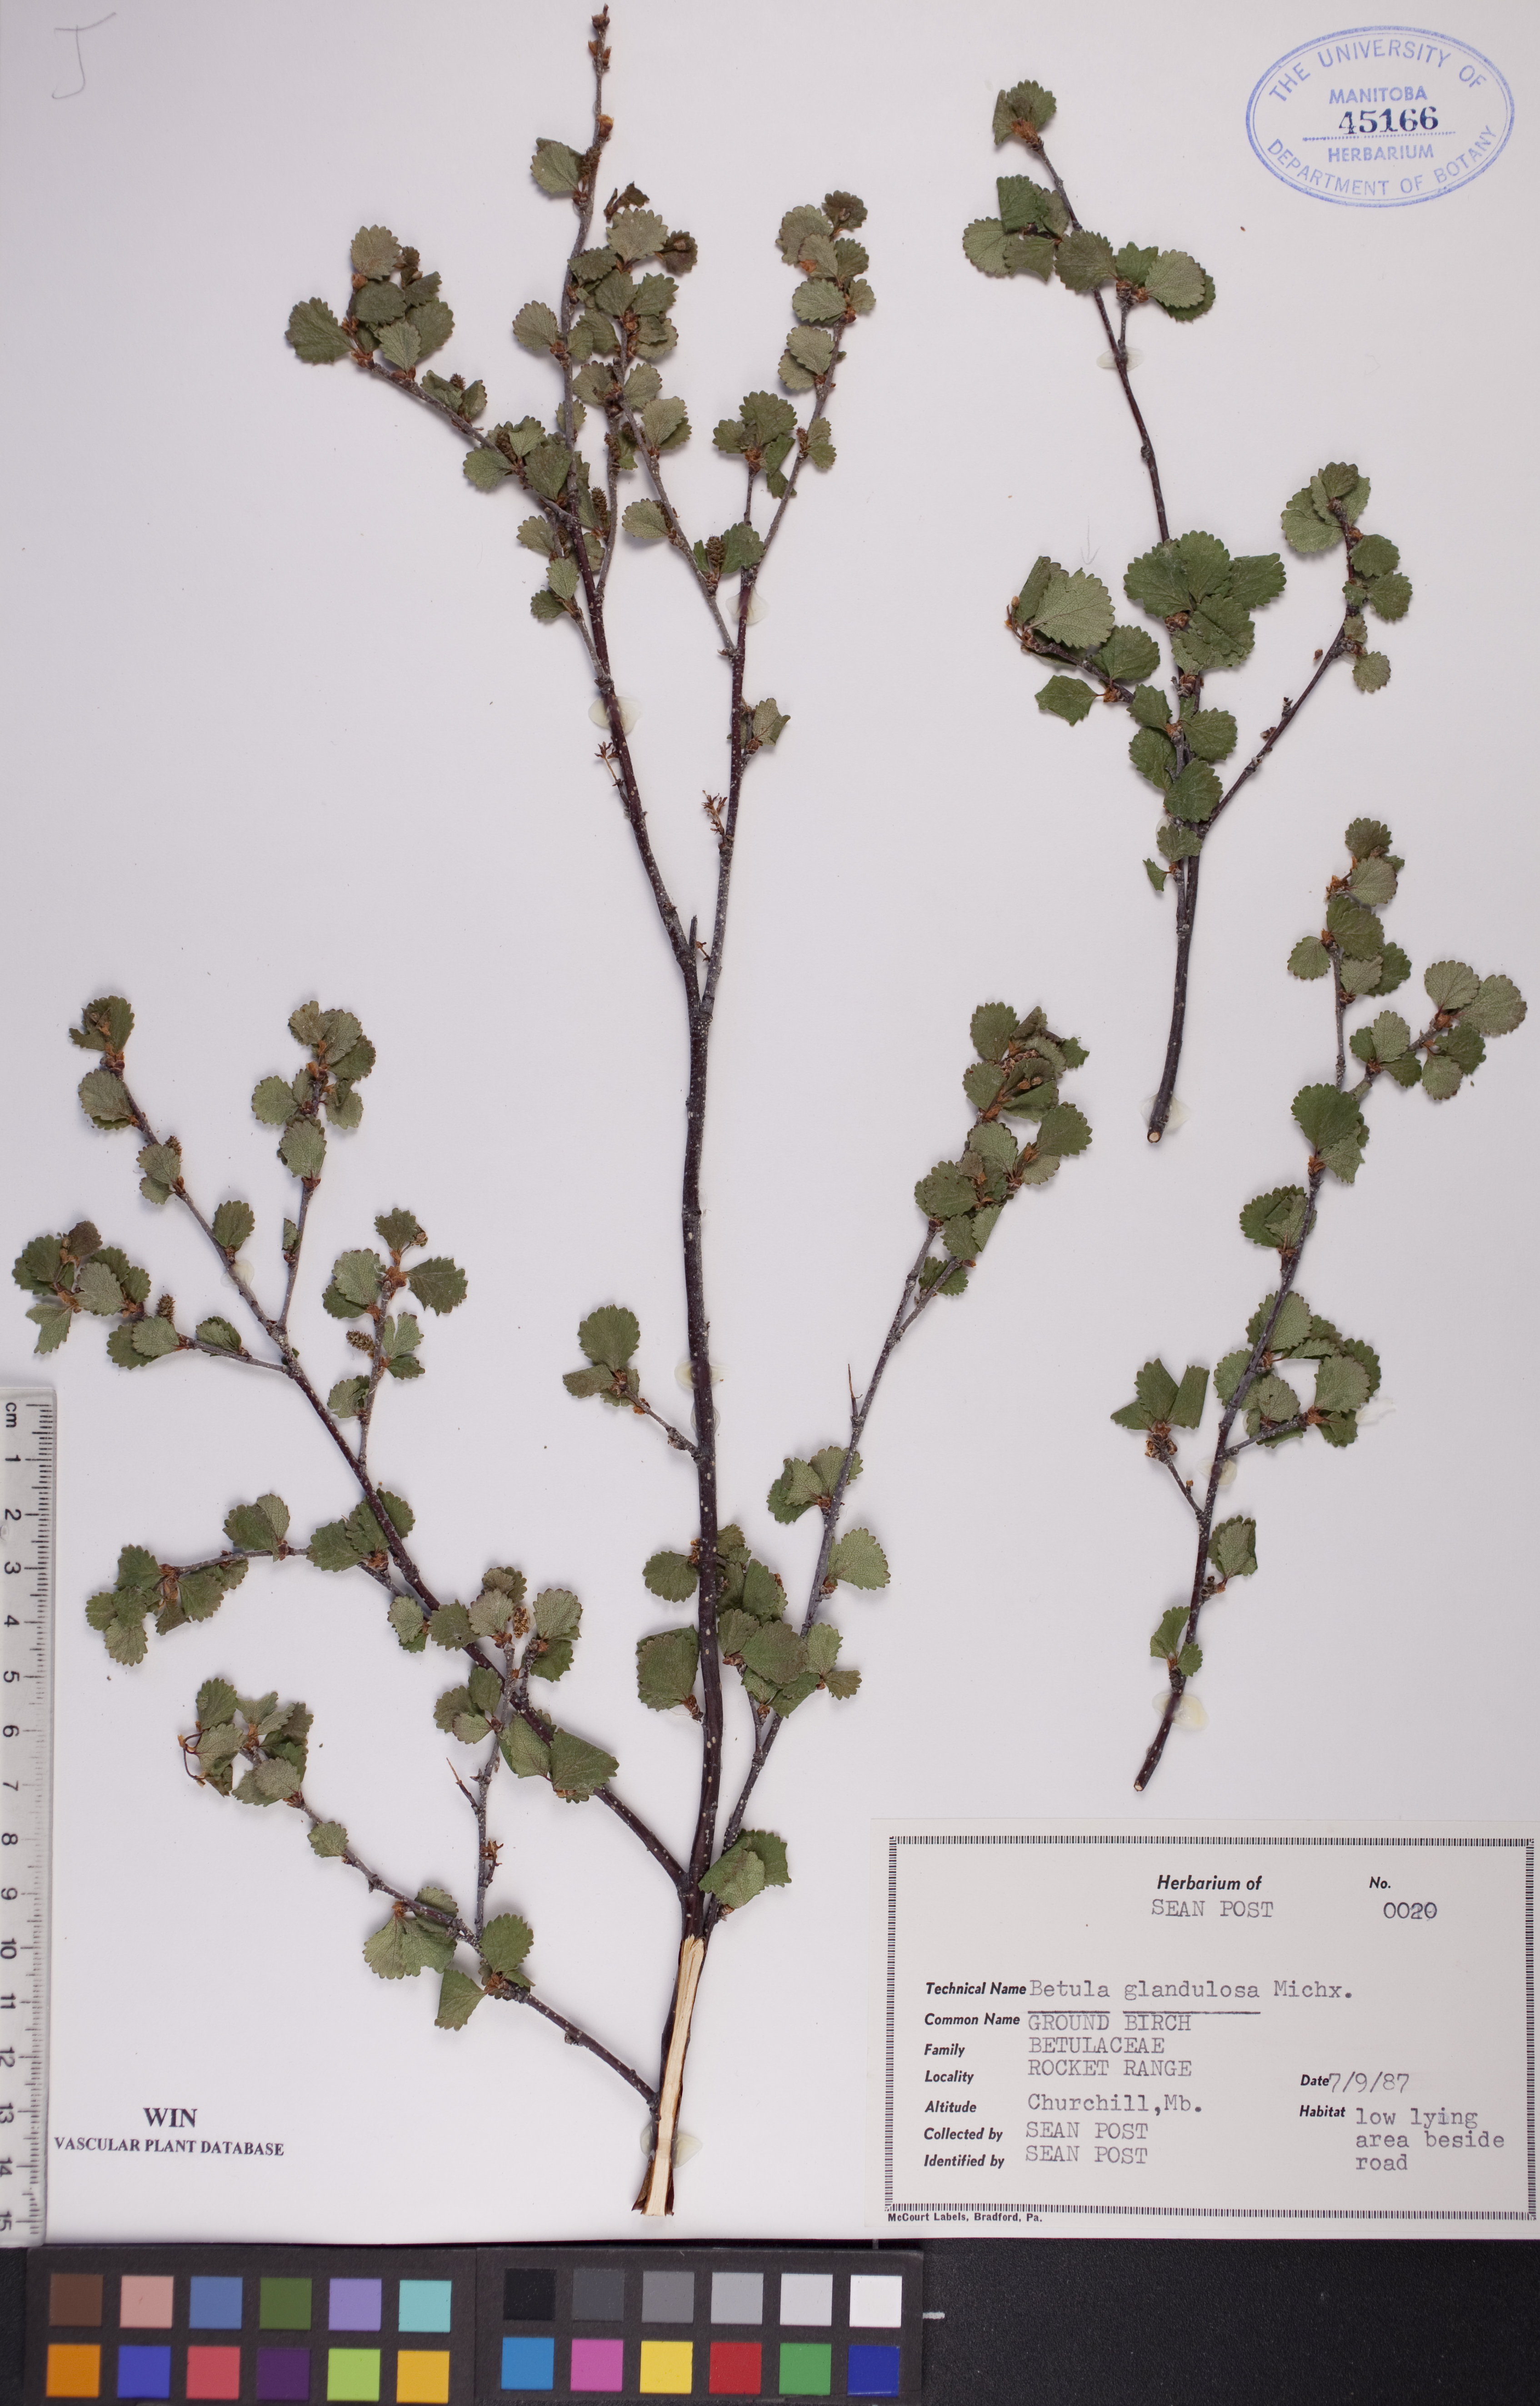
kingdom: Plantae
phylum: Tracheophyta
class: Magnoliopsida
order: Fagales
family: Betulaceae
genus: Betula
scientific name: Betula glandulosa
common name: Dwarf birch
